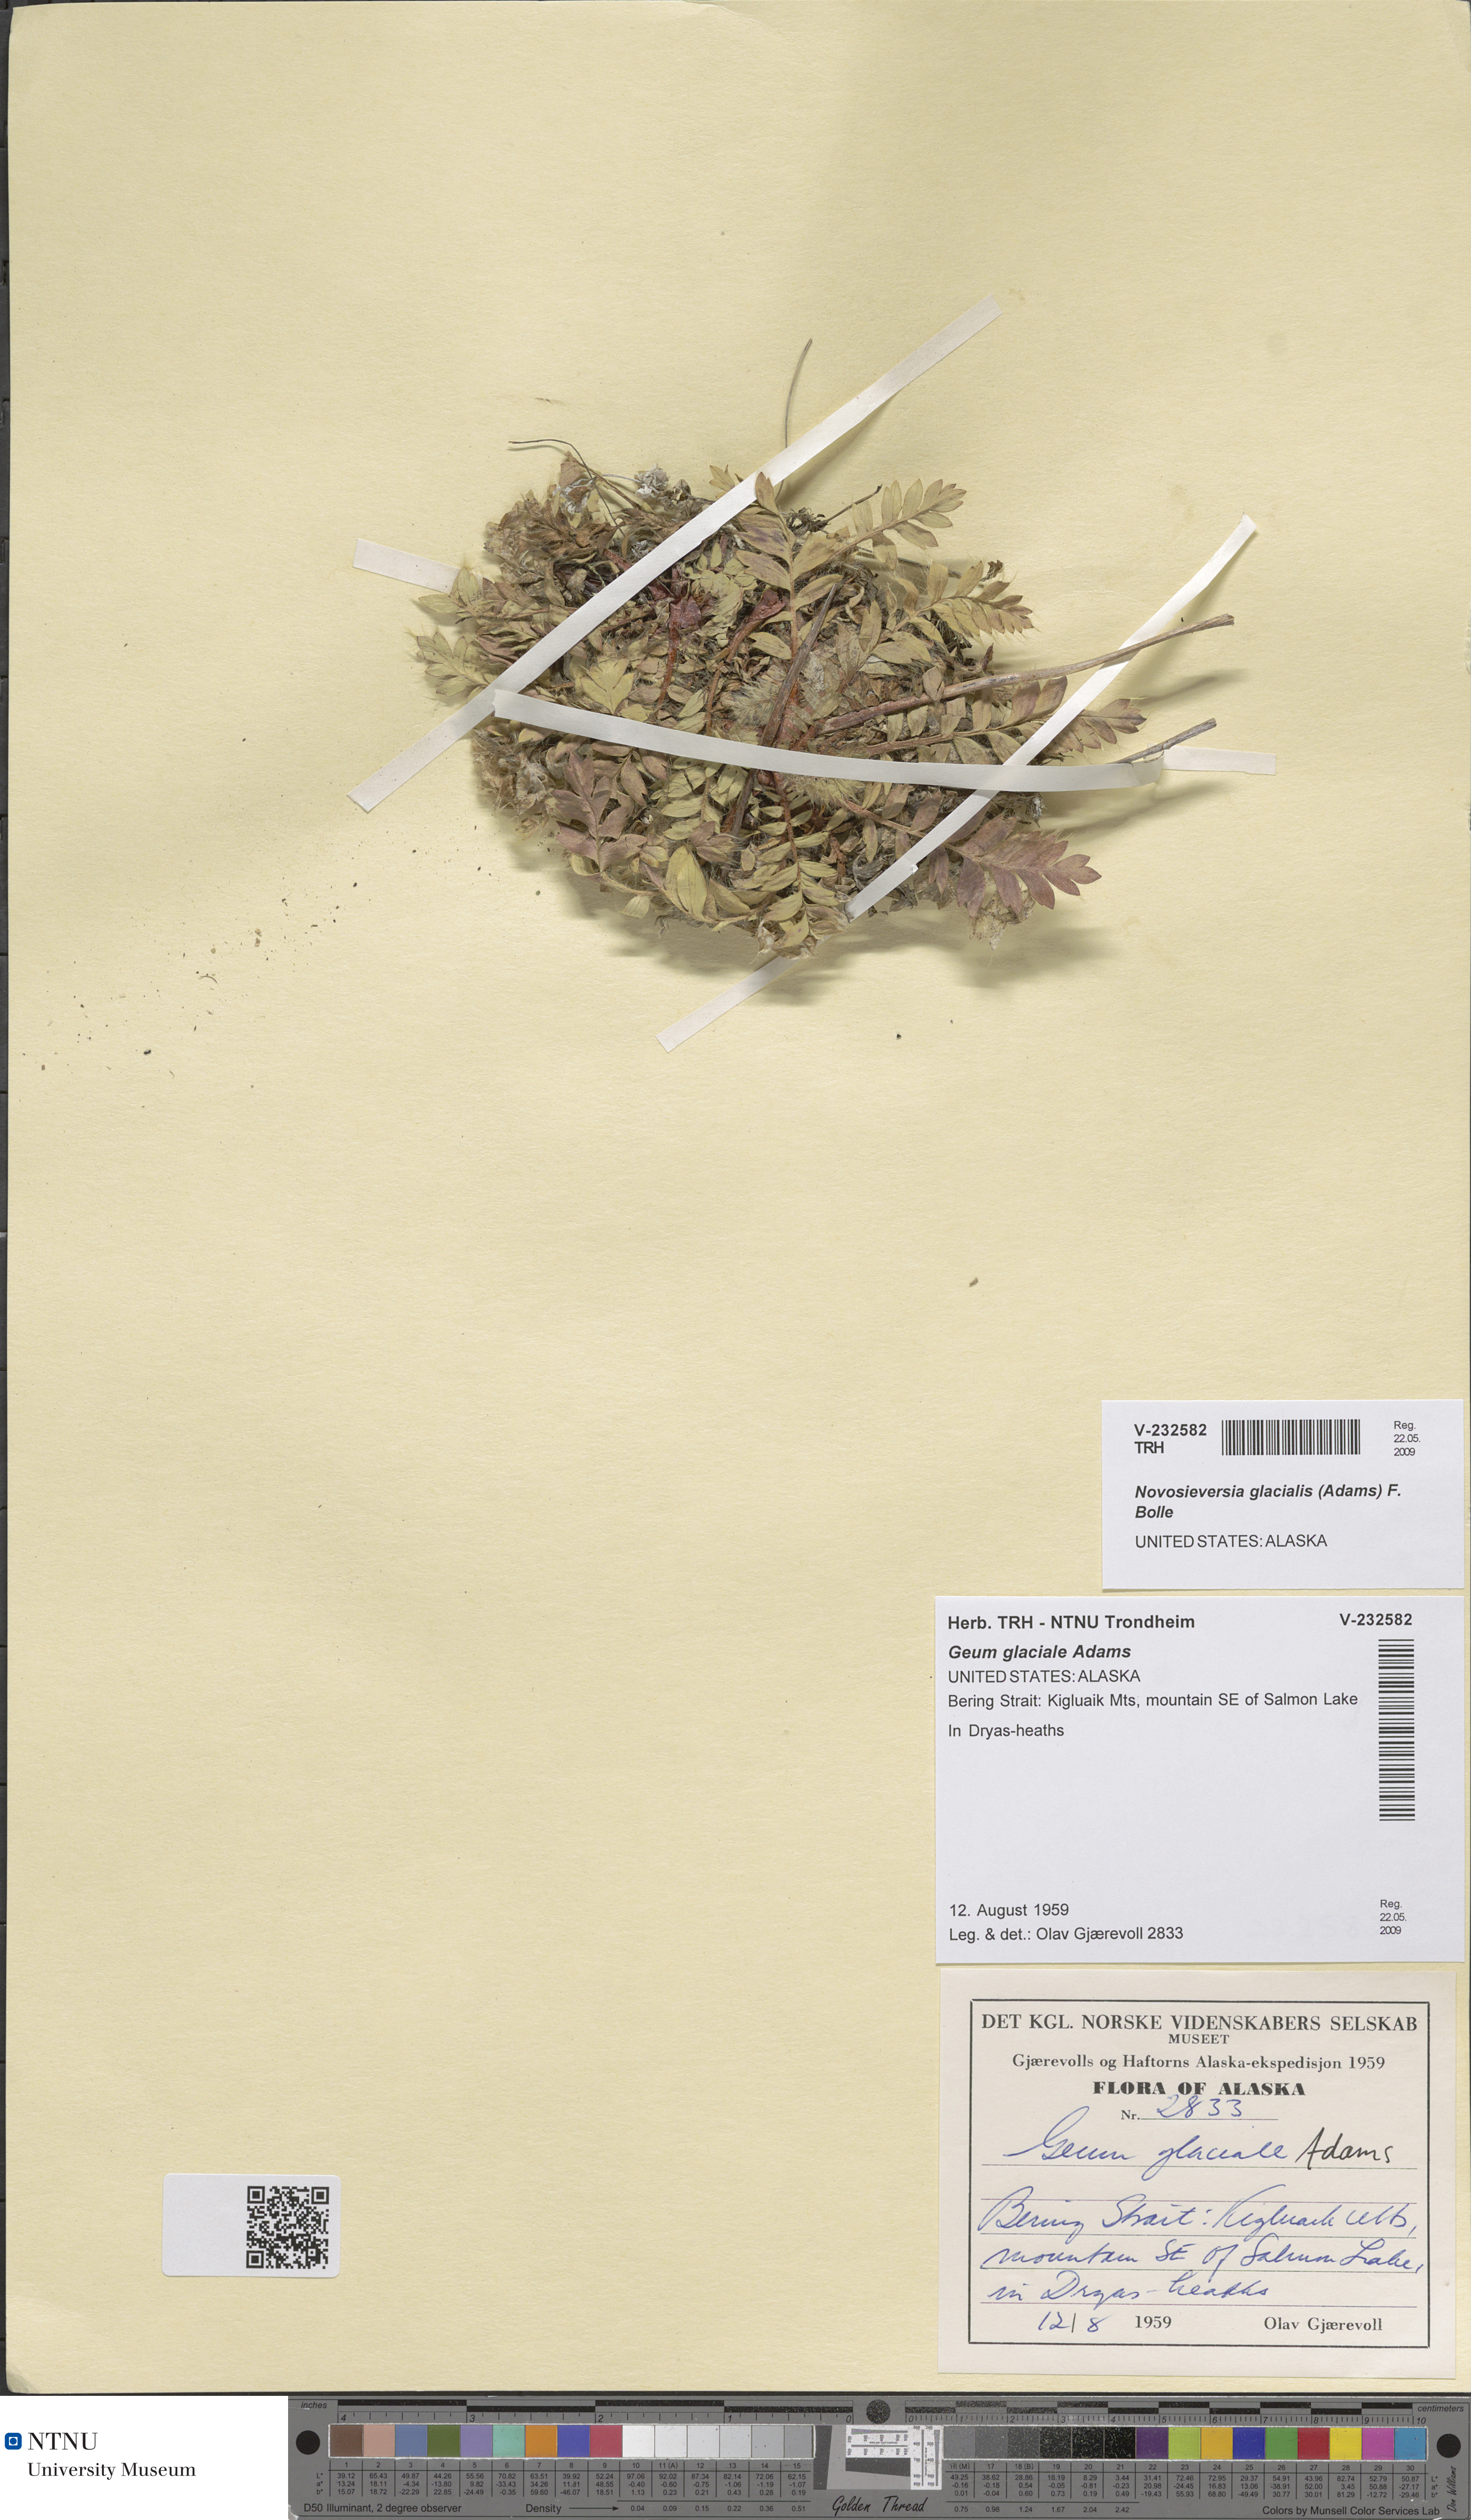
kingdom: Plantae
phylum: Tracheophyta
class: Magnoliopsida
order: Rosales
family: Rosaceae
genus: Geum
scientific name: Geum glaciale
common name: Glacier avens
